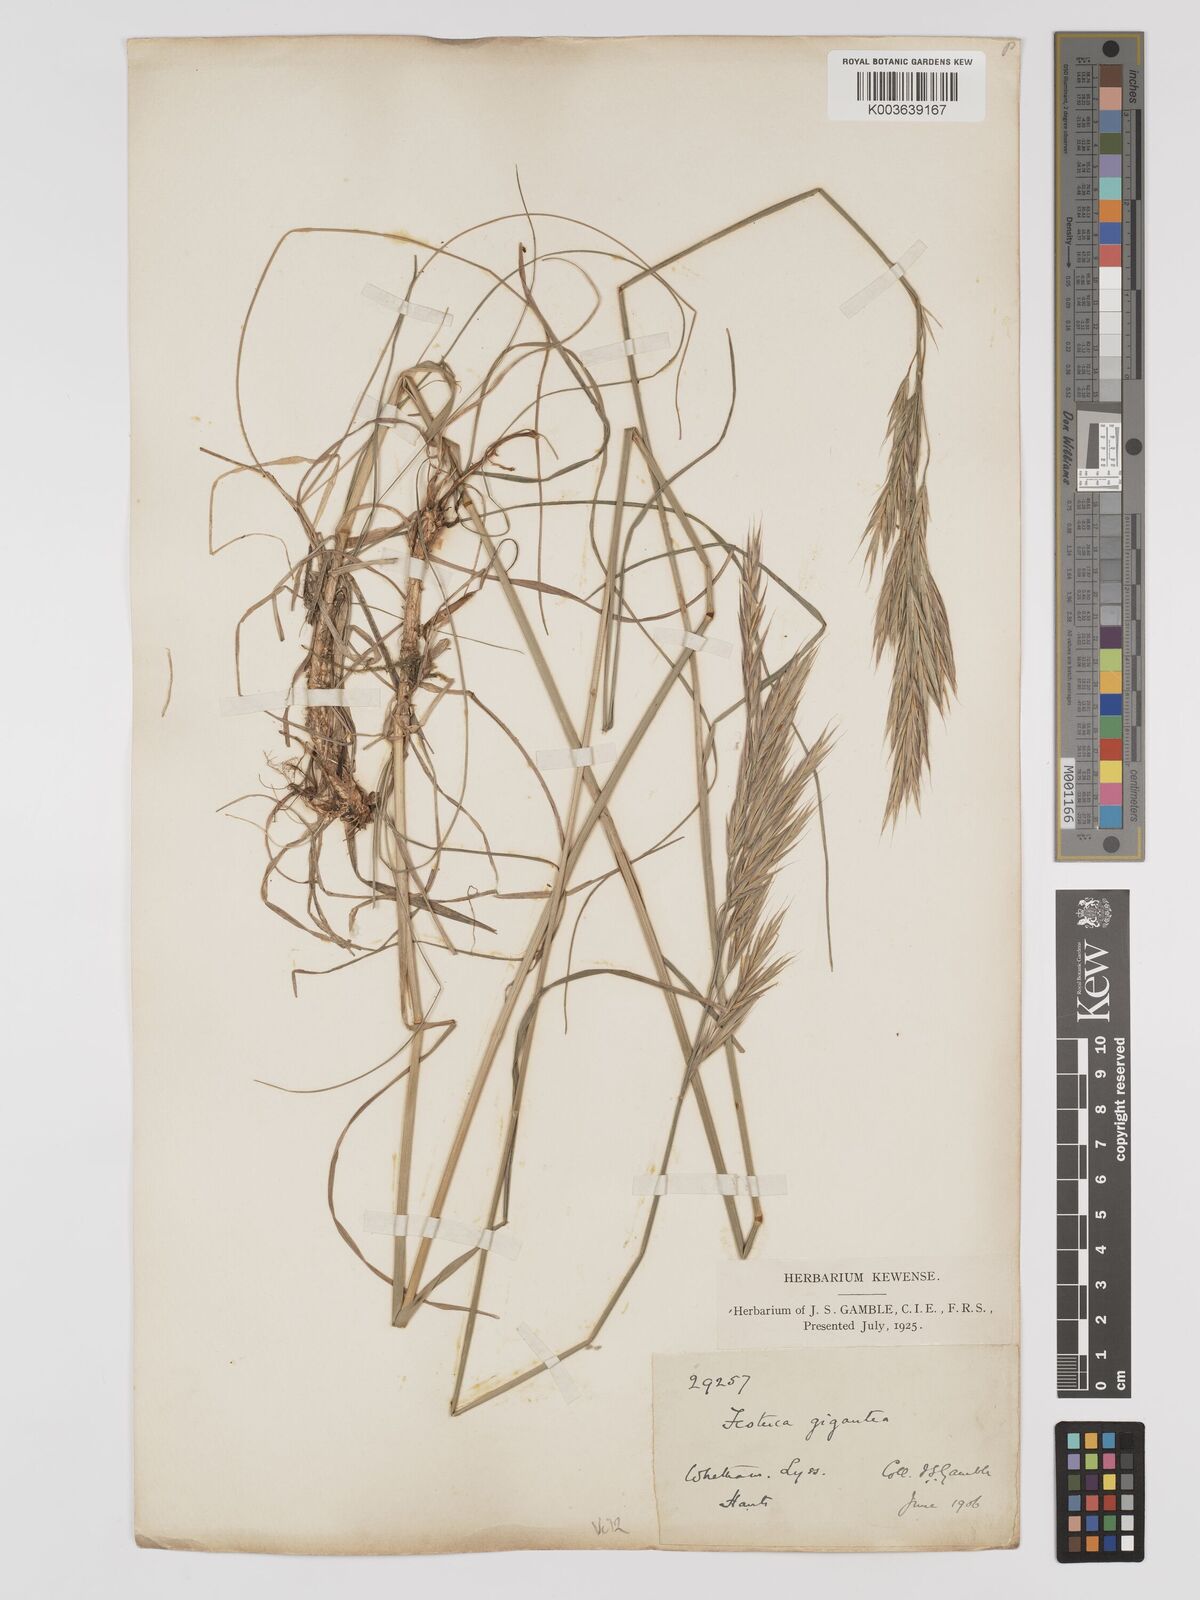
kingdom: Plantae
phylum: Tracheophyta
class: Liliopsida
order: Poales
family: Poaceae
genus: Bromus
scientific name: Bromus erectus
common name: Erect brome
